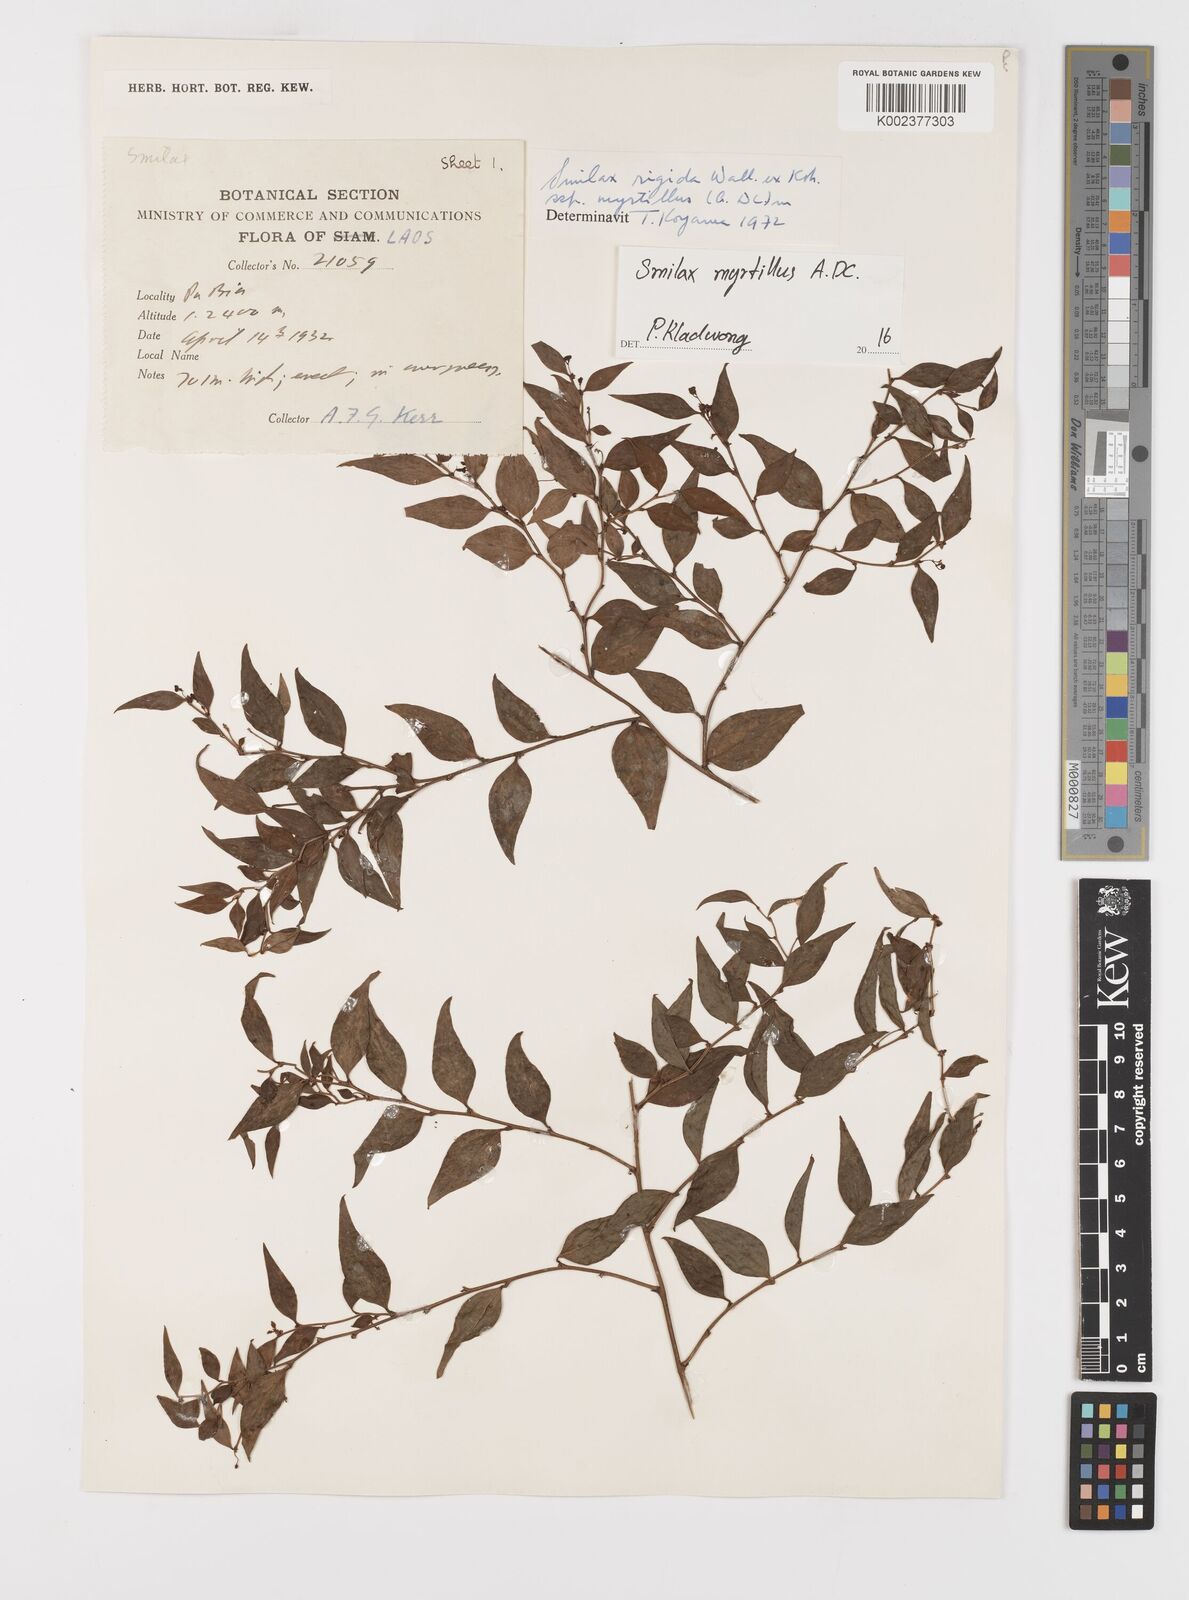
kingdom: Plantae
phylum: Tracheophyta
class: Liliopsida
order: Liliales
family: Smilacaceae
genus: Smilax
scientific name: Smilax myrtillus
